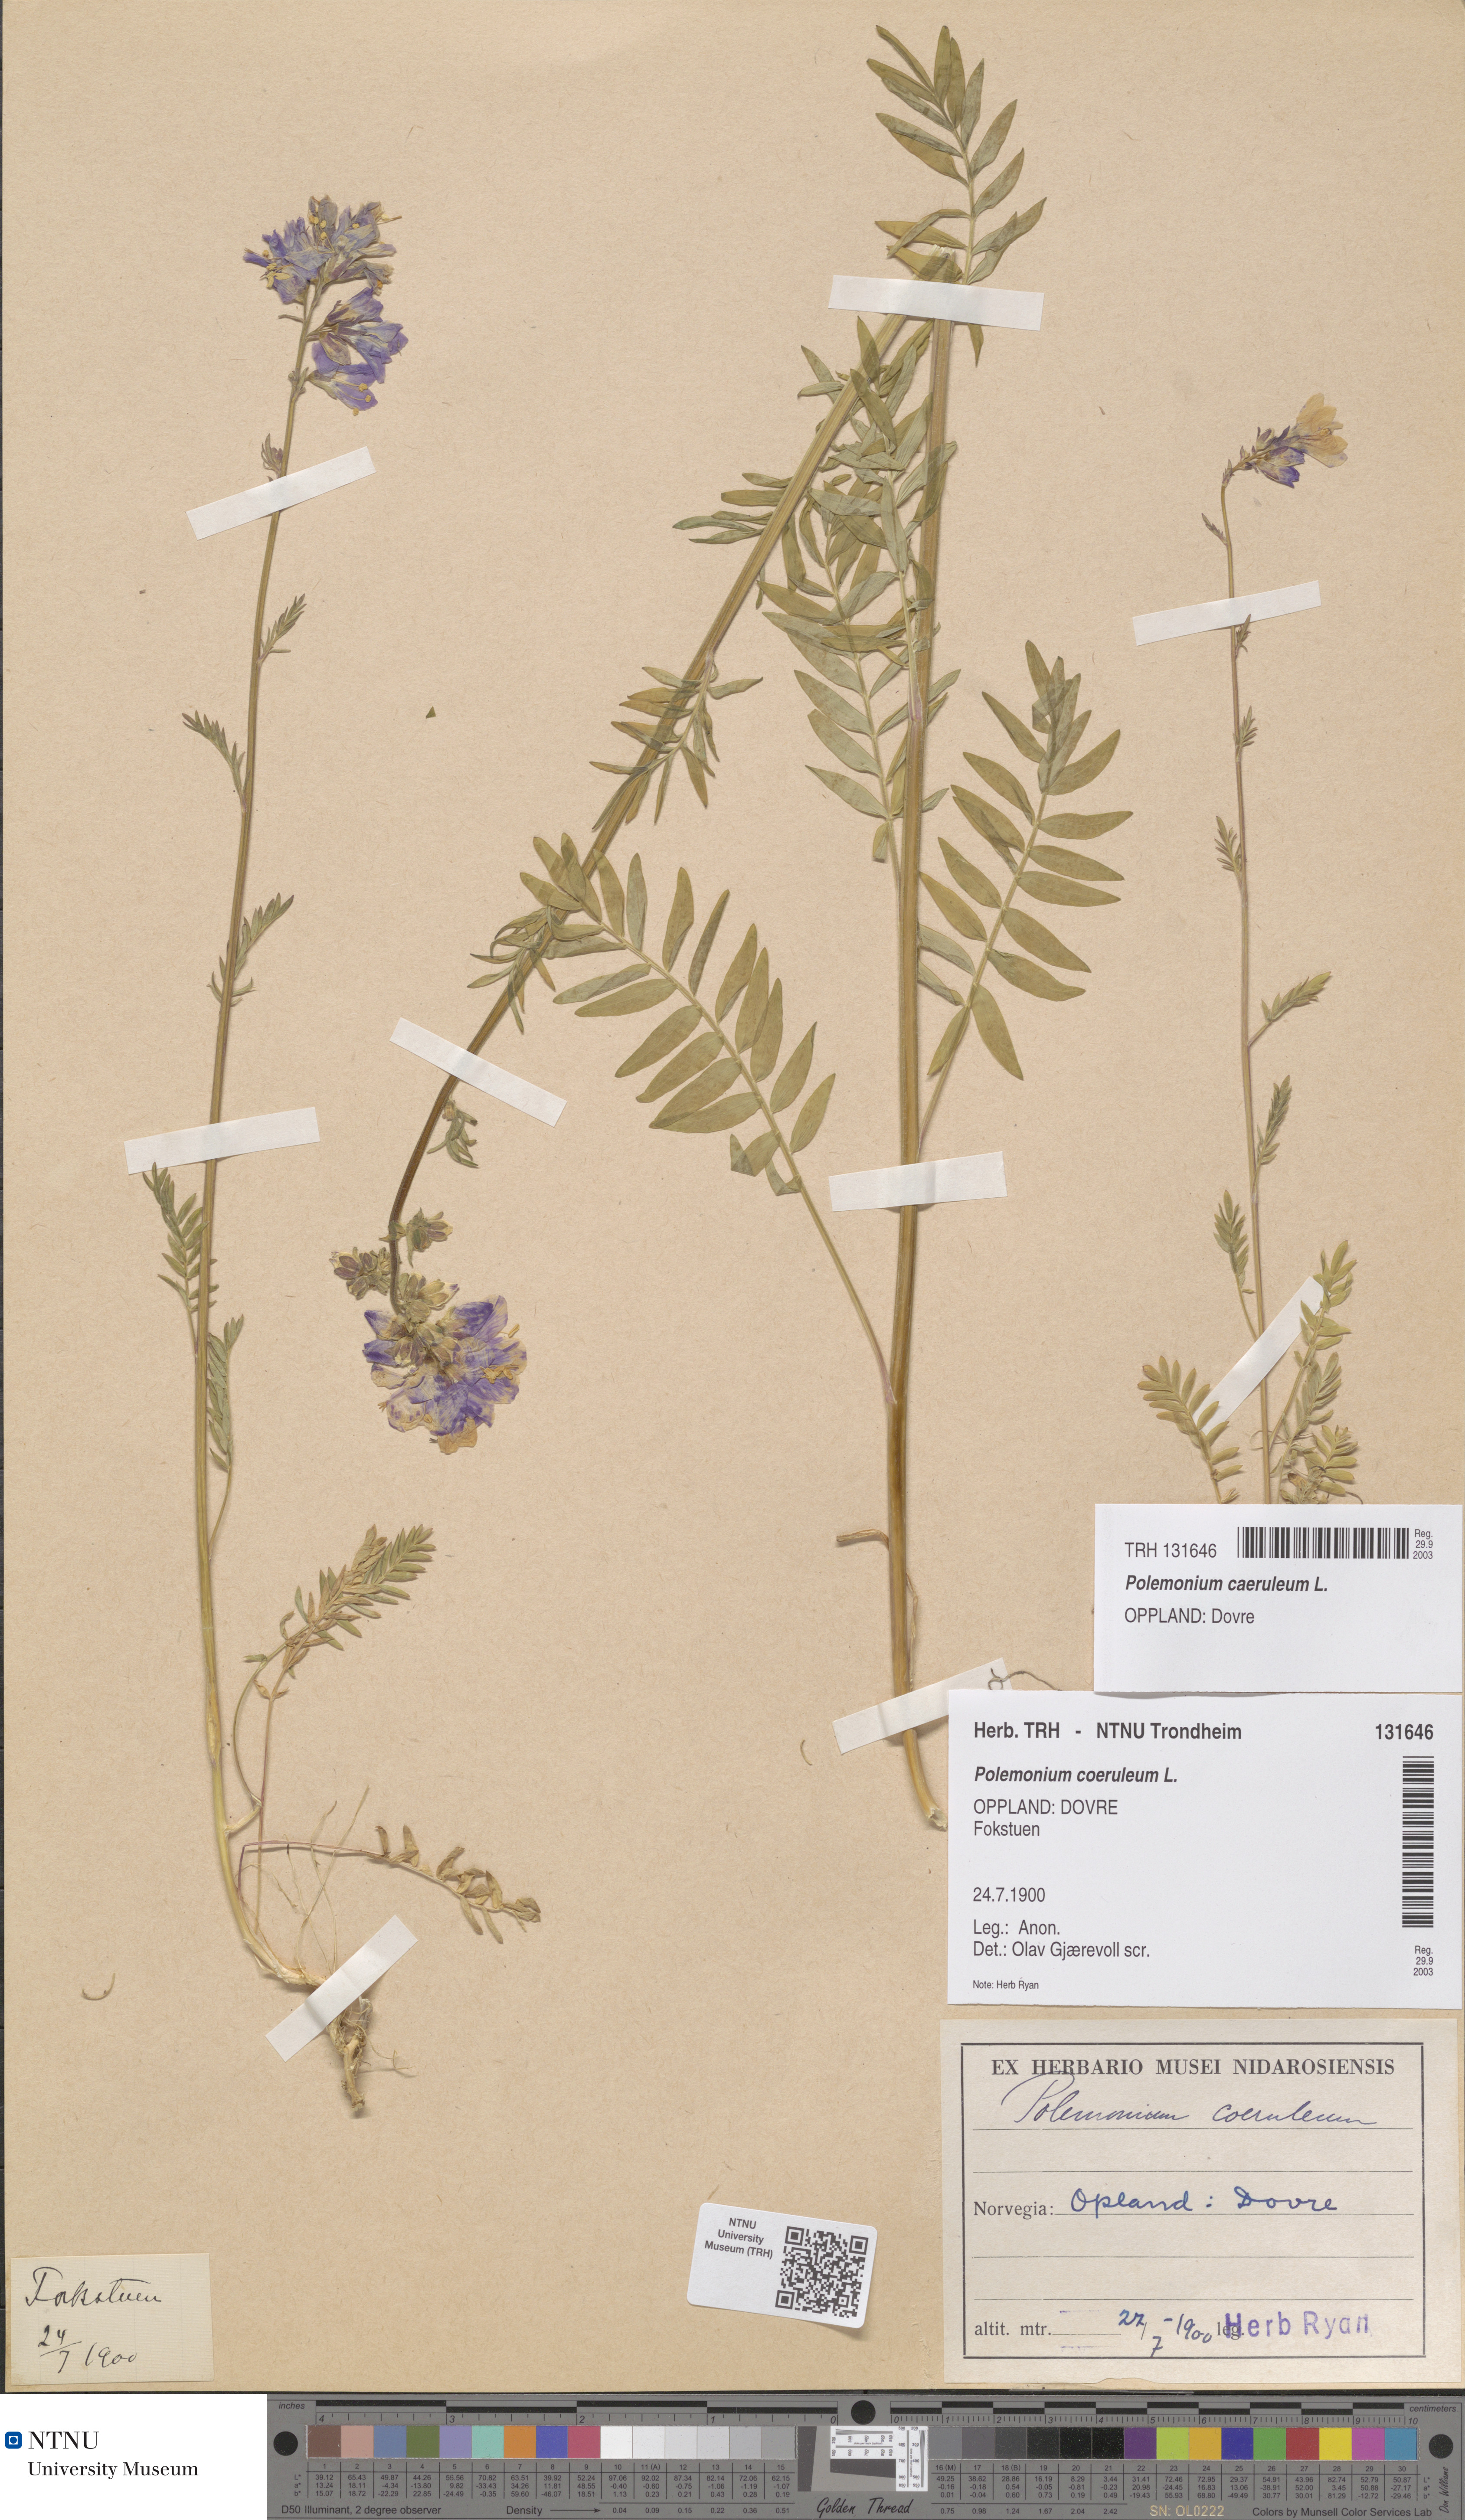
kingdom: Plantae
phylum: Tracheophyta
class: Magnoliopsida
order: Ericales
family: Polemoniaceae
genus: Polemonium
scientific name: Polemonium caeruleum
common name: Jacob's-ladder
